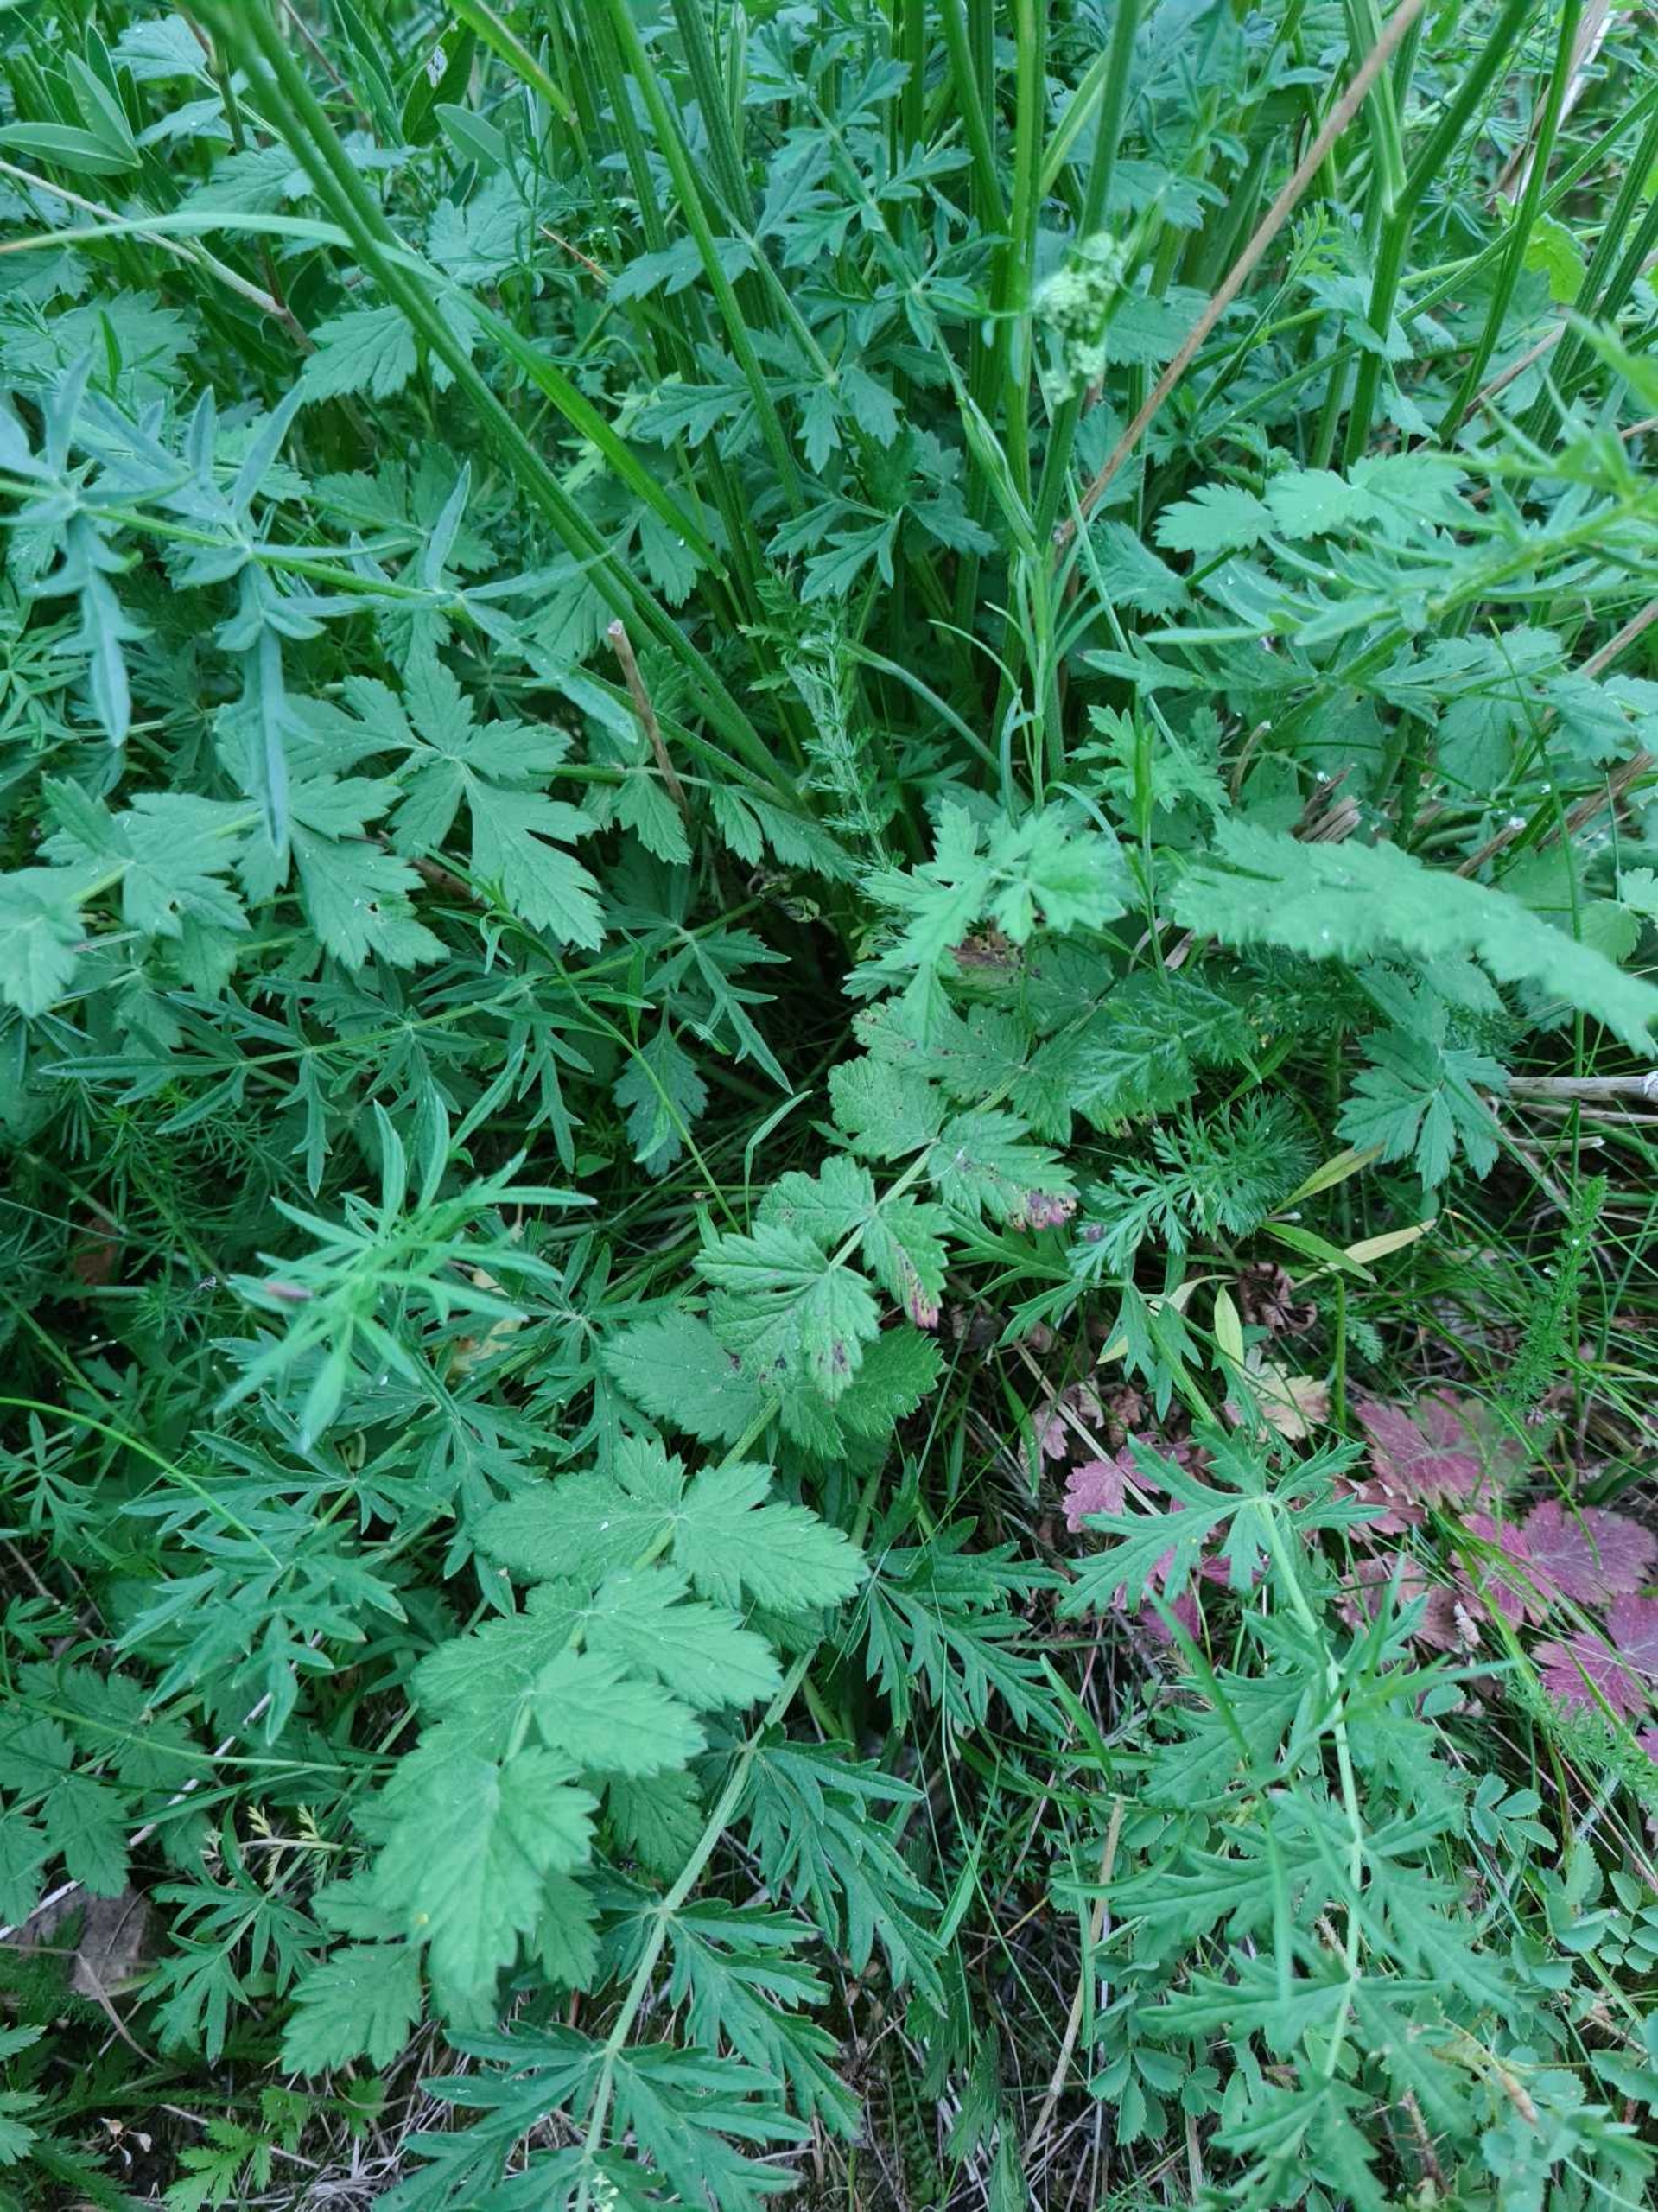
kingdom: Plantae
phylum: Tracheophyta
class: Magnoliopsida
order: Apiales
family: Apiaceae
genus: Pimpinella
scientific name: Pimpinella saxifraga
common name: Almindelig pimpinelle
